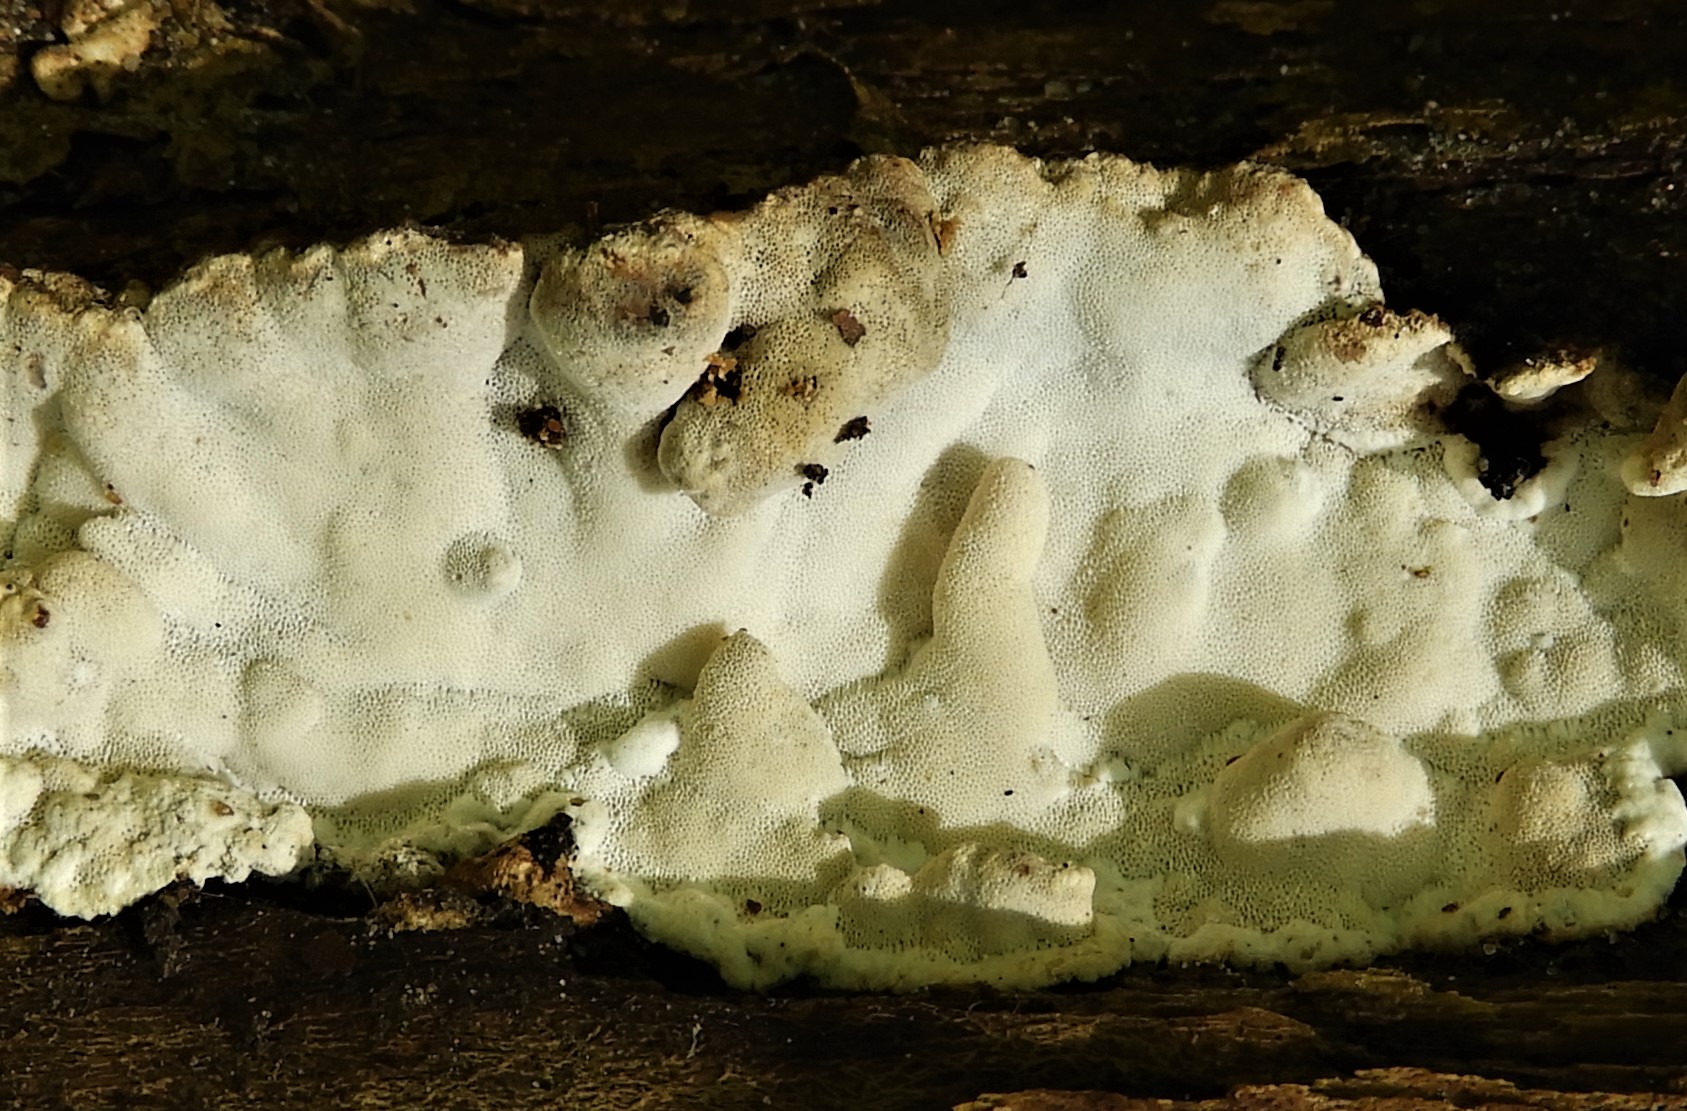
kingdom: Fungi
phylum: Basidiomycota
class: Agaricomycetes
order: Polyporales
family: Incrustoporiaceae
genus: Skeletocutis
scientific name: Skeletocutis nemoralis
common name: stor krystalporesvamp
